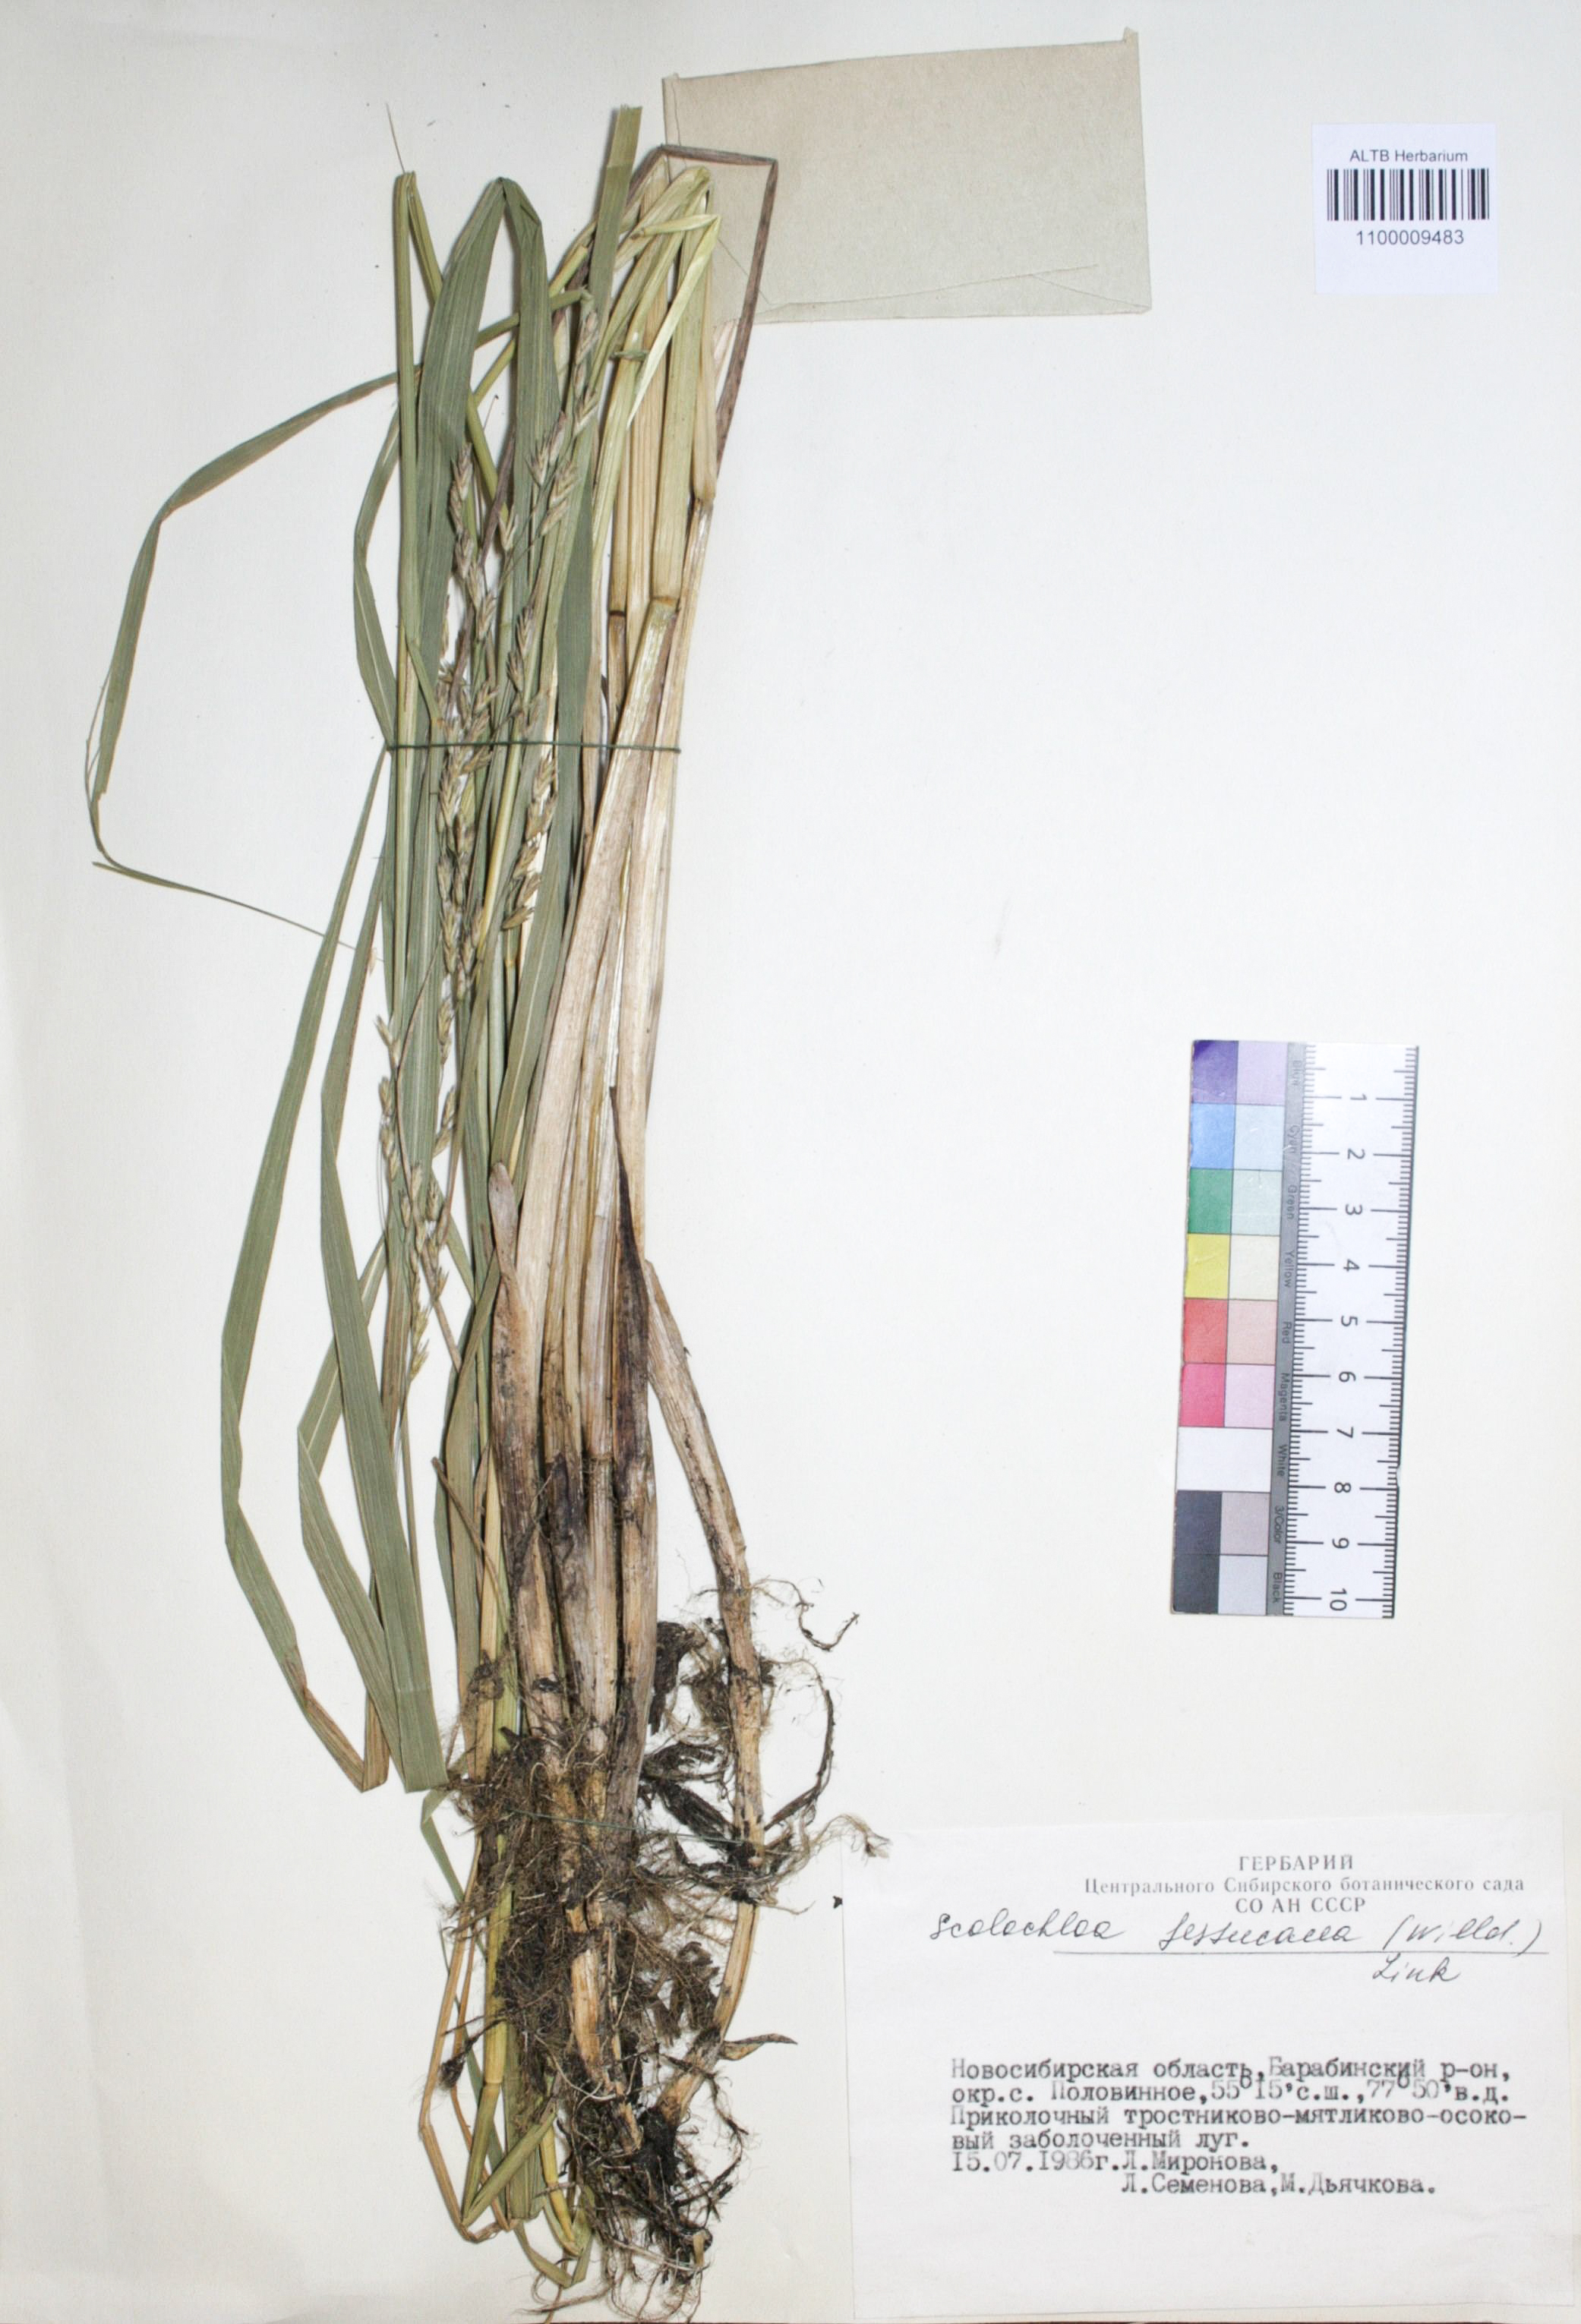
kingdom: Plantae
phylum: Tracheophyta
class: Liliopsida
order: Poales
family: Poaceae
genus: Scolochloa
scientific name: Scolochloa festucacea
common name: Common rivergrass
